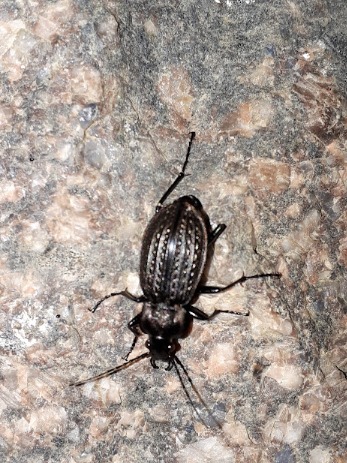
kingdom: Animalia
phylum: Arthropoda
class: Insecta
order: Coleoptera
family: Carabidae
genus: Carabus
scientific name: Carabus granulatus
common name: Kornet løber
